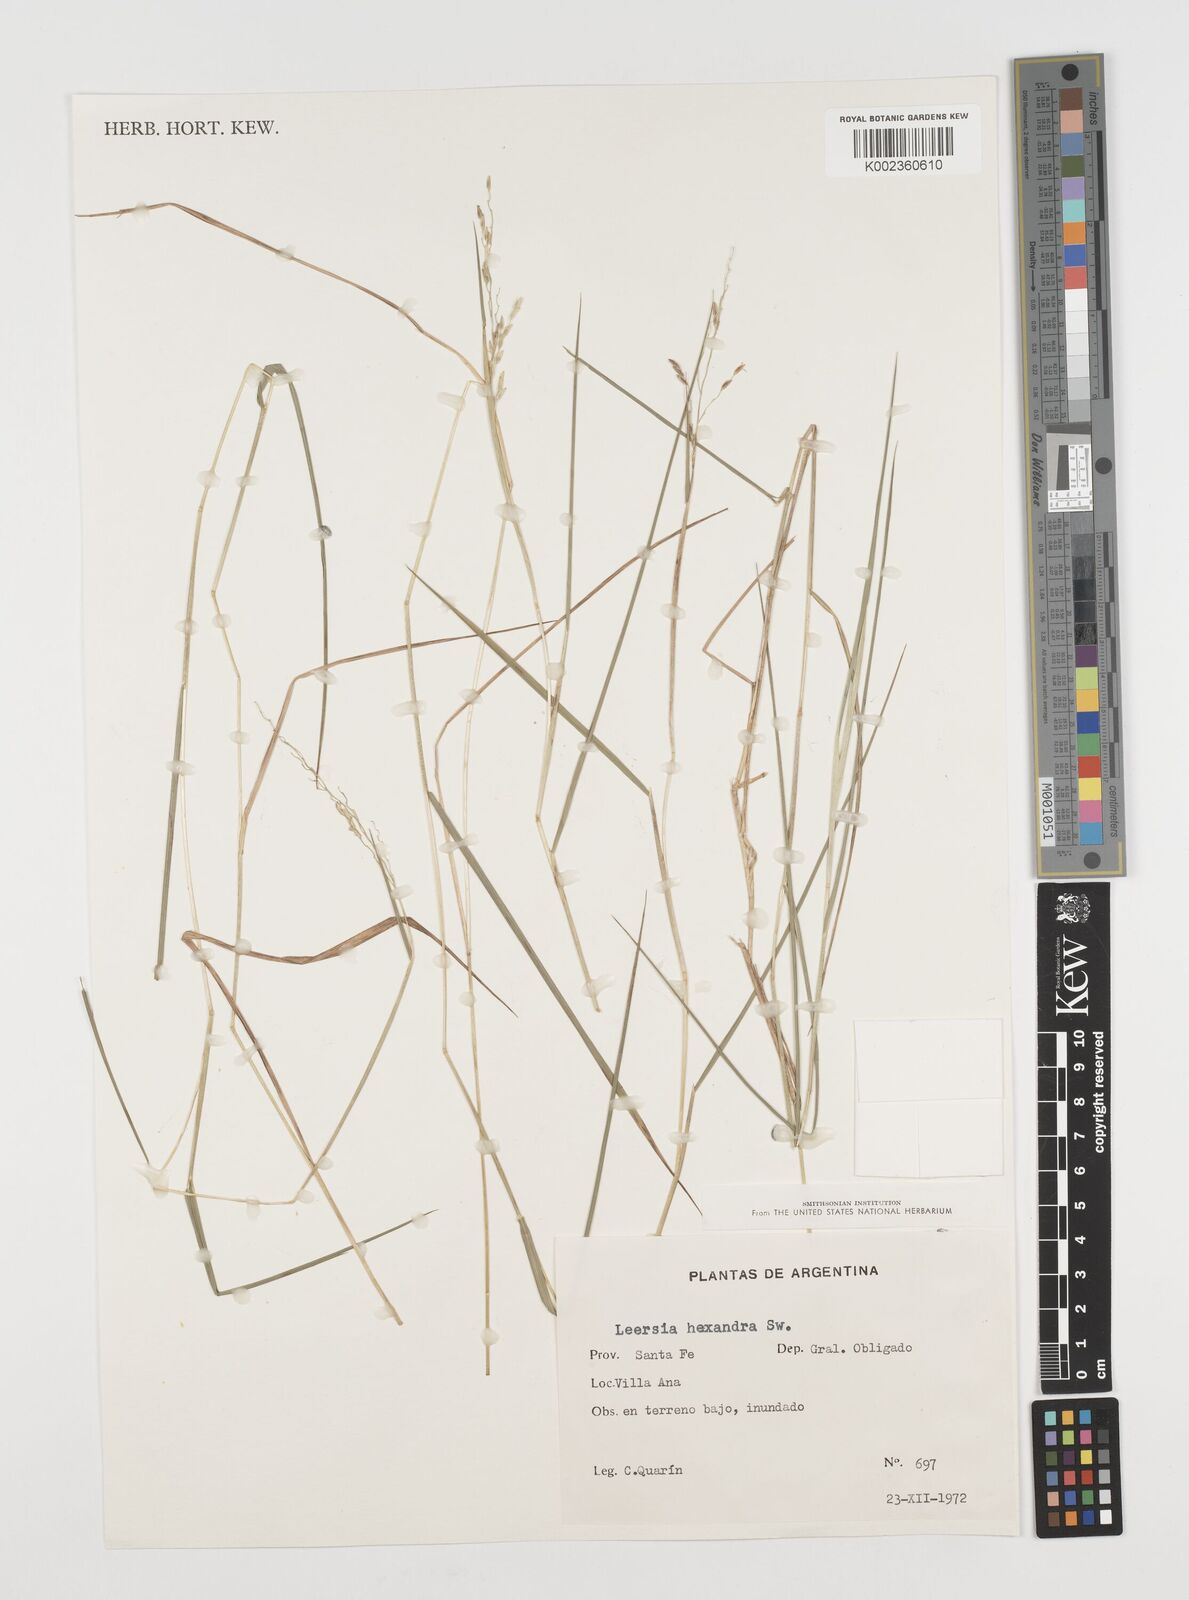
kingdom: Plantae
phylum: Tracheophyta
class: Liliopsida
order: Poales
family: Poaceae
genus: Leersia
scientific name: Leersia hexandra
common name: Southern cut grass
